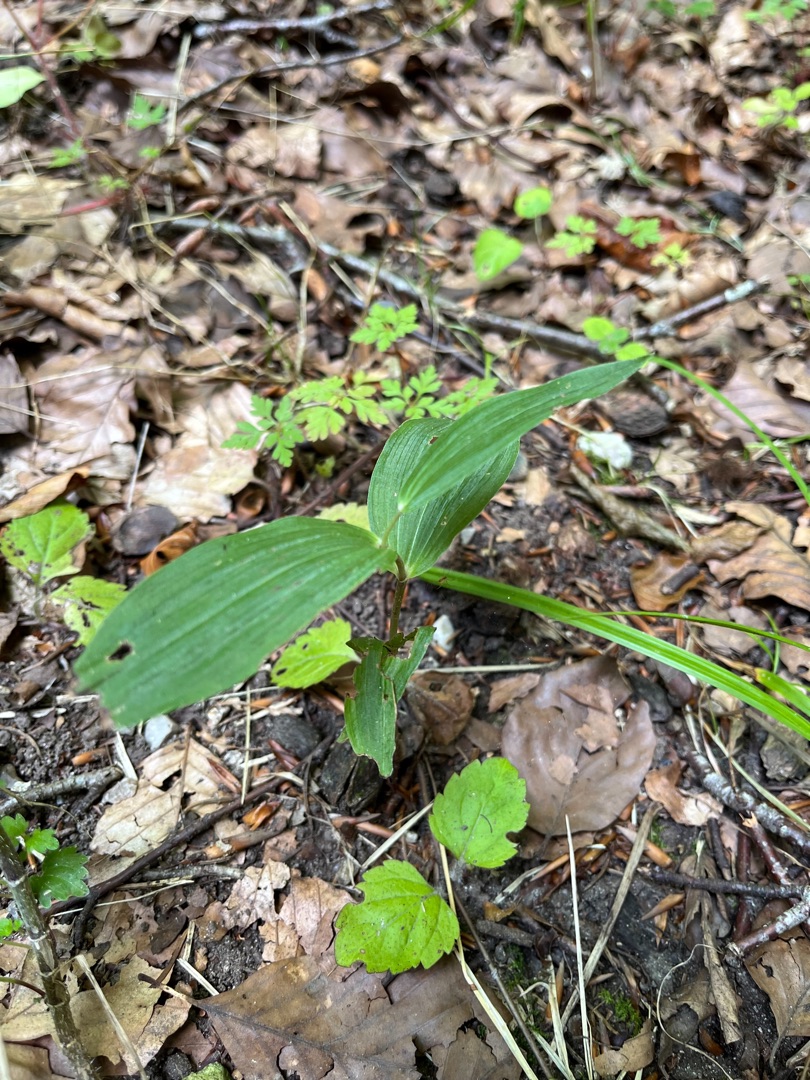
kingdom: Plantae
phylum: Tracheophyta
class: Liliopsida
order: Asparagales
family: Orchidaceae
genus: Epipactis
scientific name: Epipactis helleborine
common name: Skov-hullæbe
